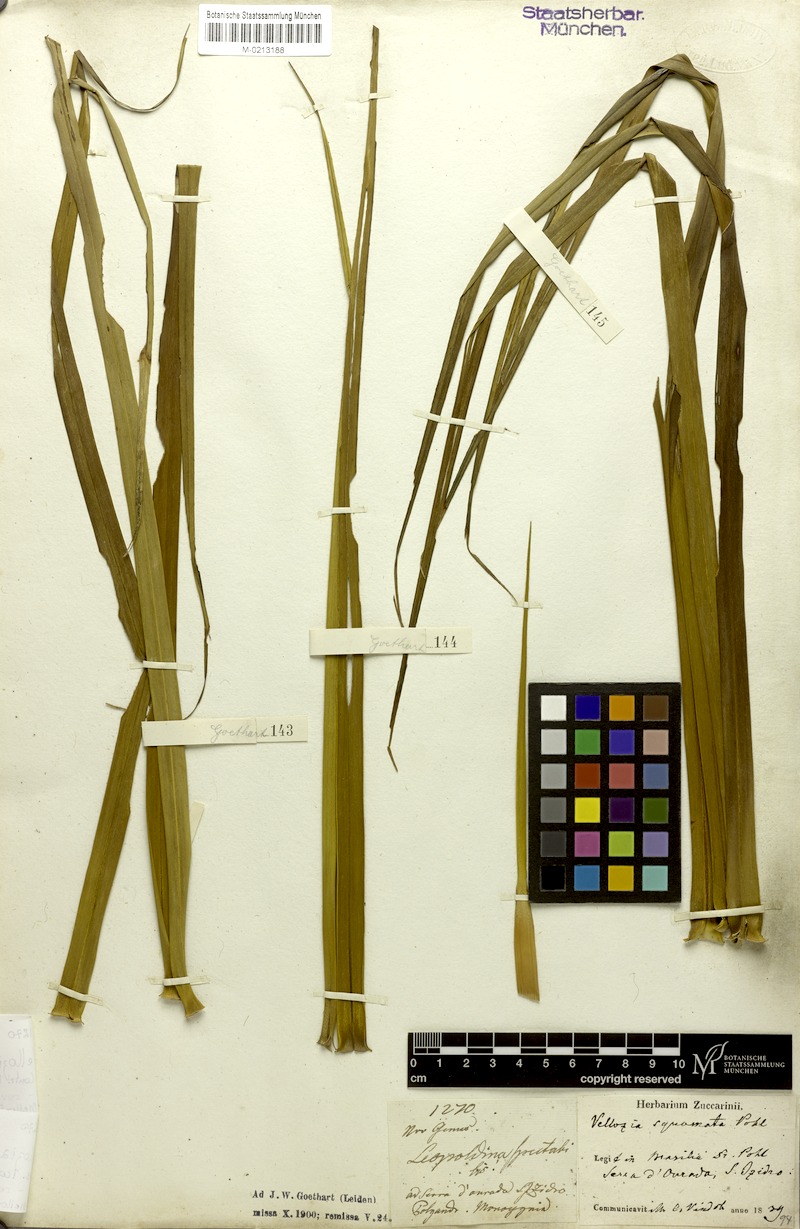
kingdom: Plantae
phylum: Tracheophyta
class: Liliopsida
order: Pandanales
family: Velloziaceae
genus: Vellozia
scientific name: Vellozia squamata
